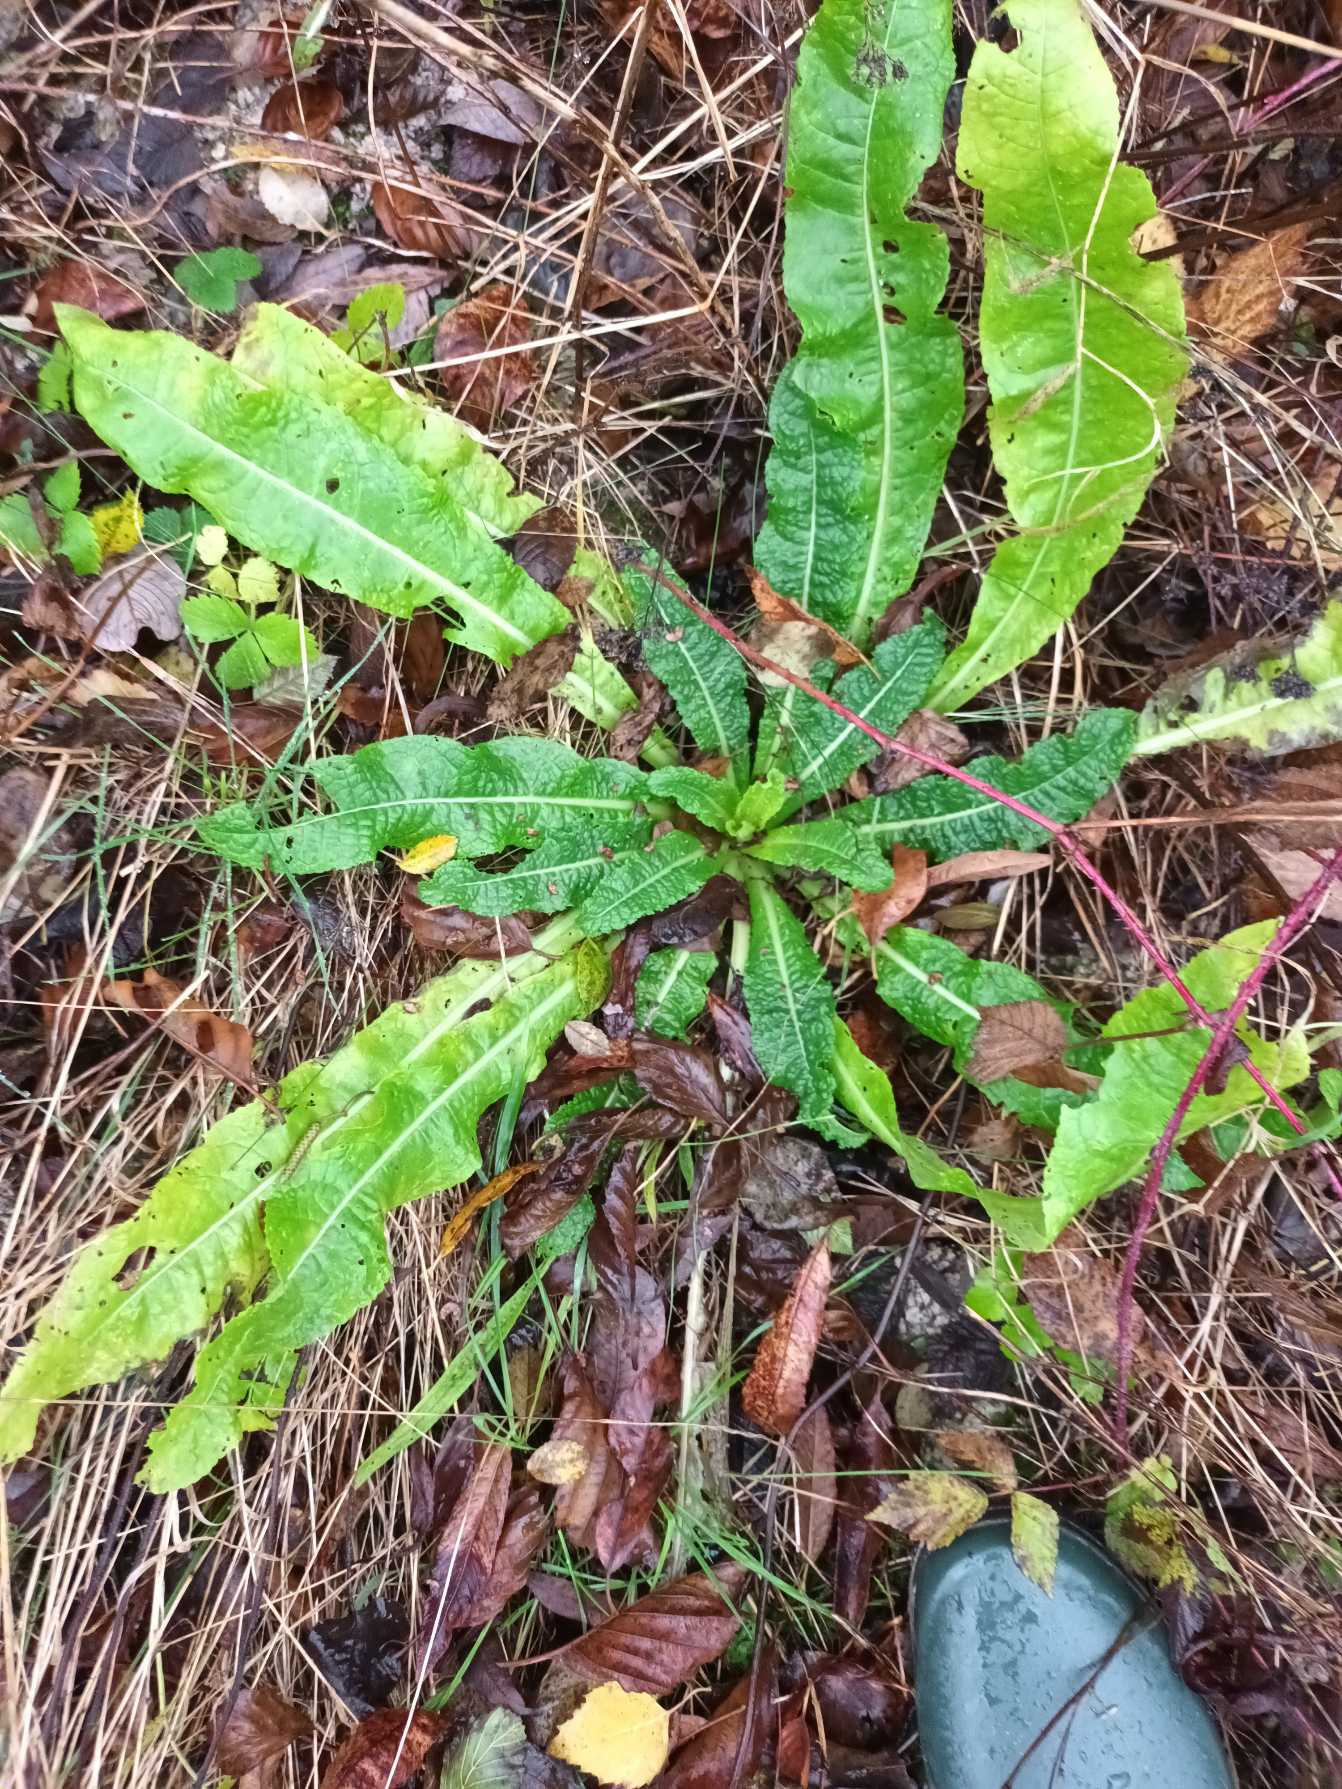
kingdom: Plantae
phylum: Tracheophyta
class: Magnoliopsida
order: Dipsacales
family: Caprifoliaceae
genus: Dipsacus
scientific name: Dipsacus fullonum
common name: Gærde-kartebolle
